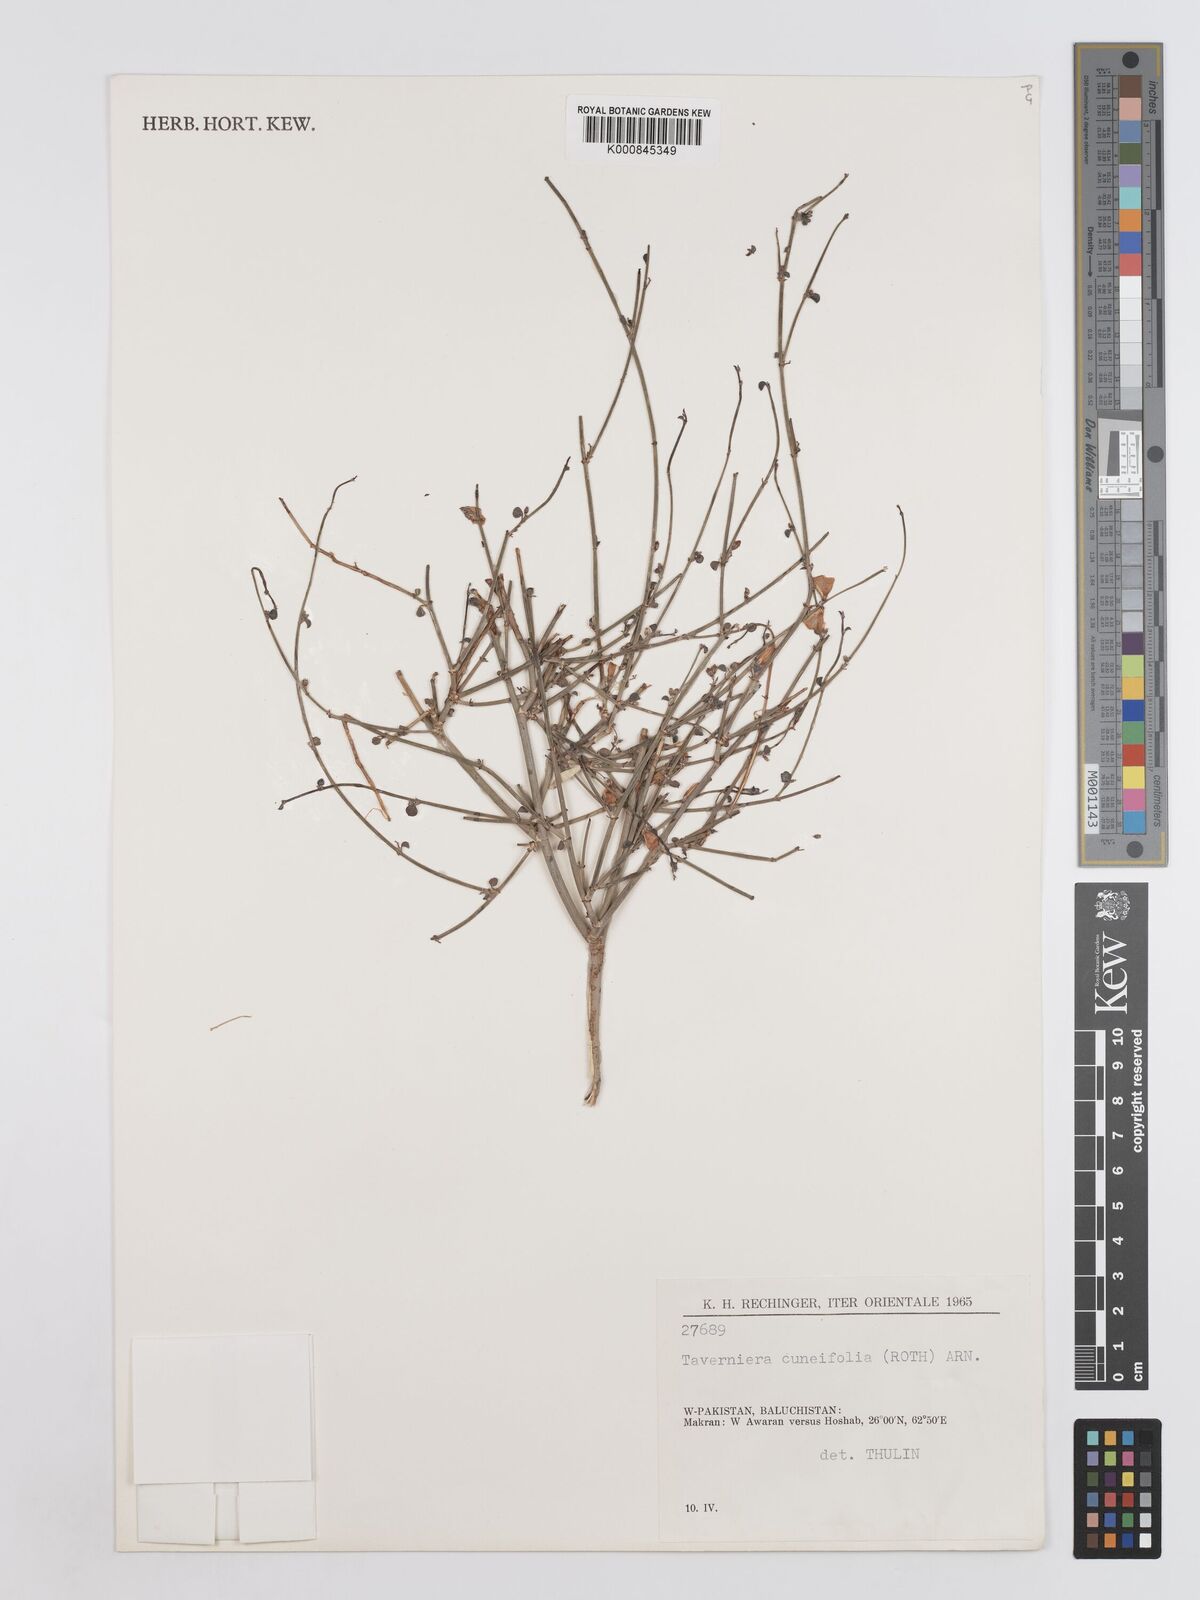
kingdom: Plantae
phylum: Tracheophyta
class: Magnoliopsida
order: Fabales
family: Fabaceae
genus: Taverniera
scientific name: Taverniera cuneifolia
